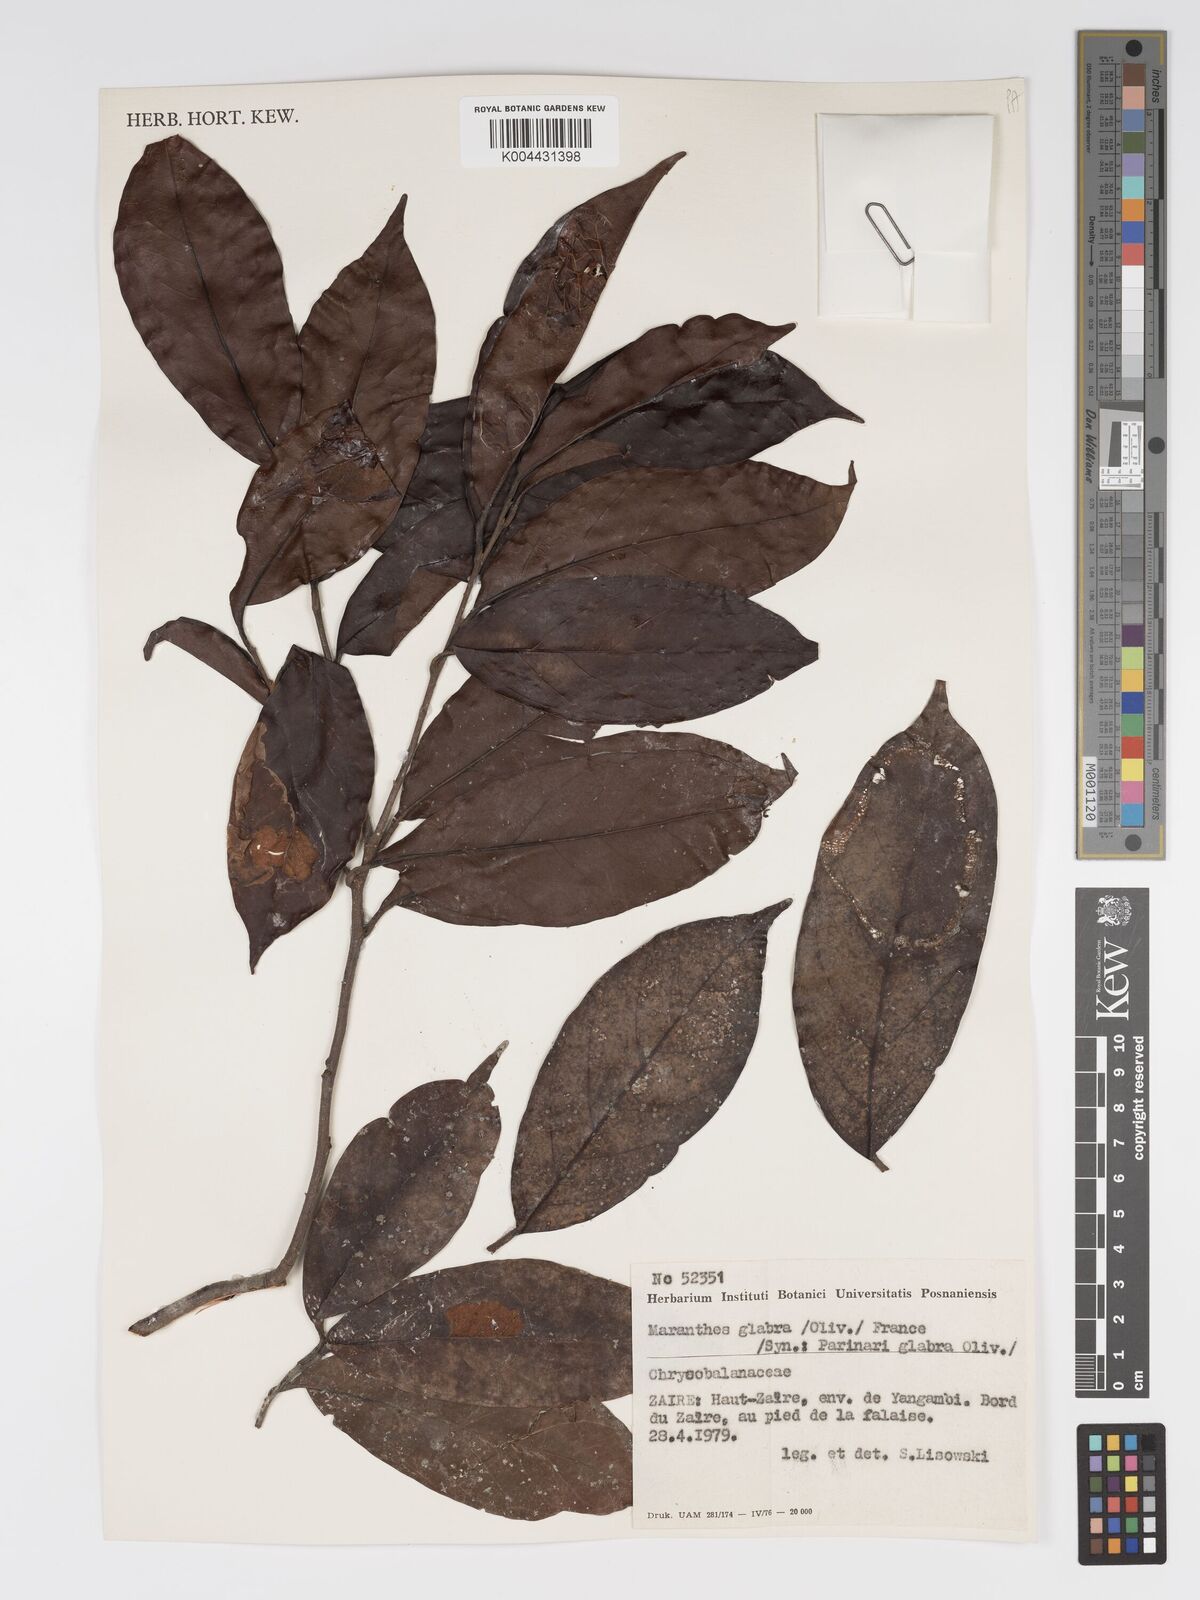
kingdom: Plantae
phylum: Tracheophyta
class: Magnoliopsida
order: Malpighiales
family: Chrysobalanaceae
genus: Maranthes
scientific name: Maranthes glabra
